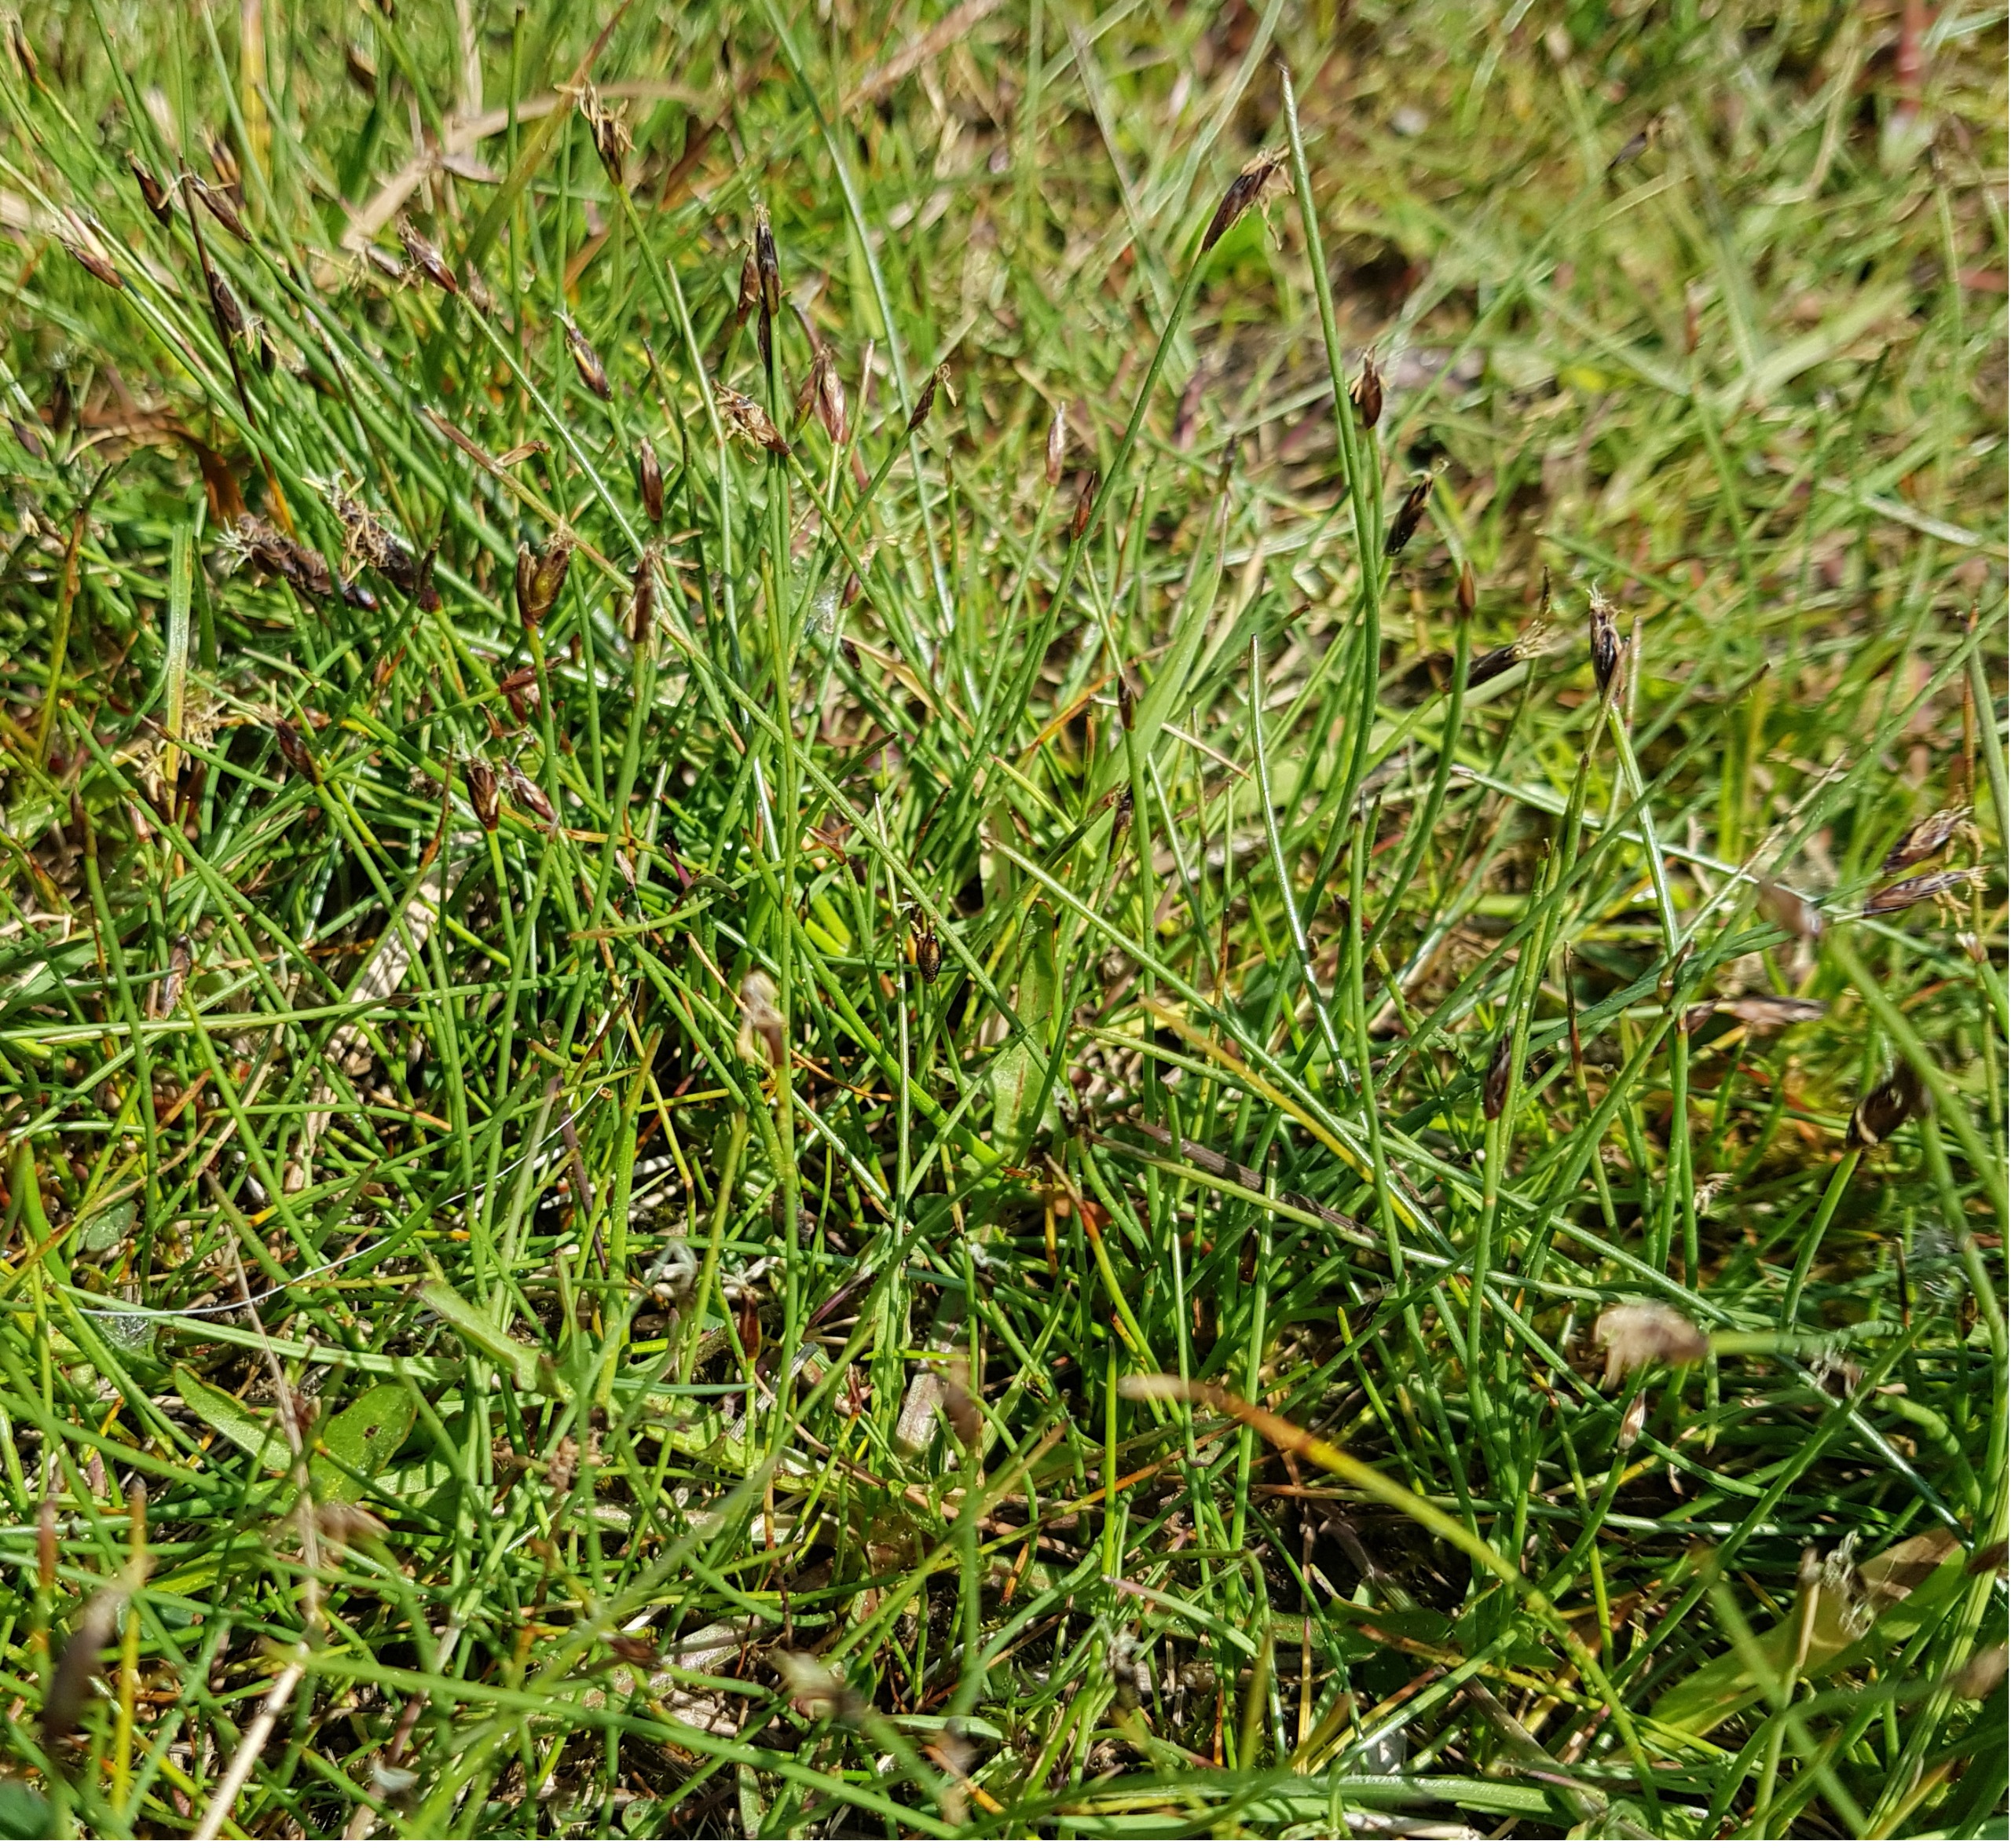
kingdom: Plantae
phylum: Tracheophyta
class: Liliopsida
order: Poales
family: Cyperaceae
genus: Eleocharis
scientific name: Eleocharis quinqueflora
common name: Fåblomstret kogleaks
